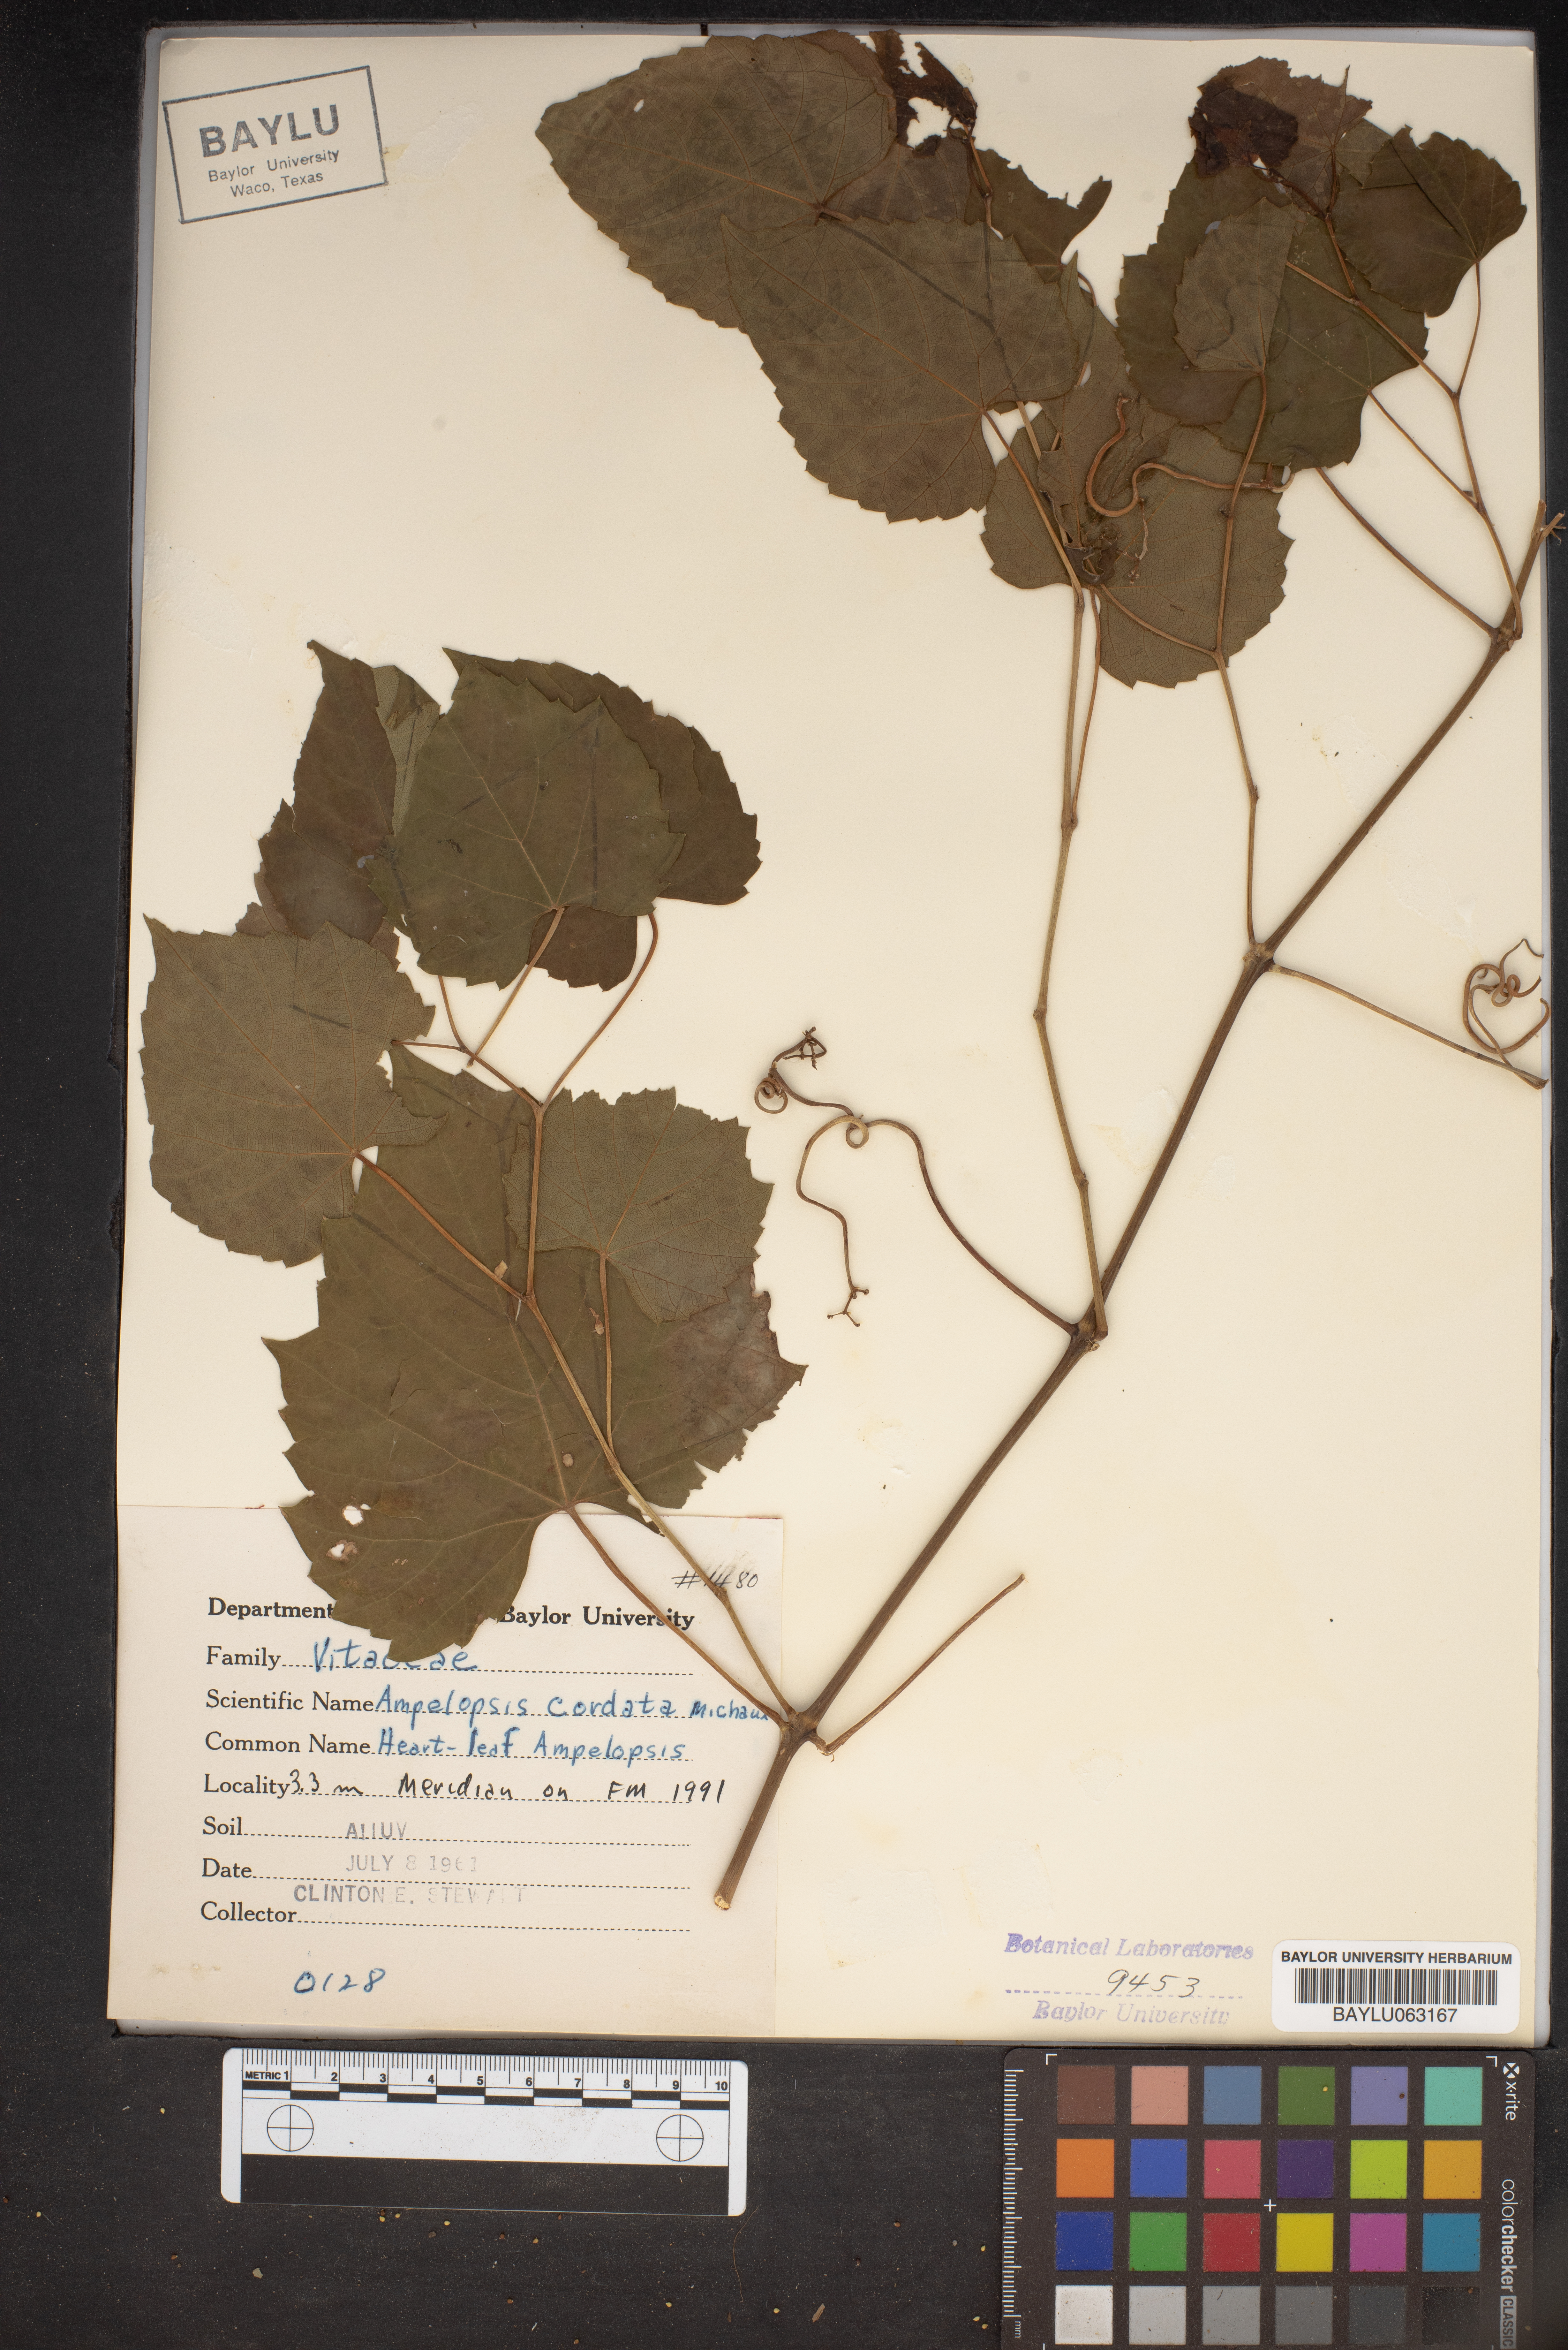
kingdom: Plantae
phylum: Tracheophyta
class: Magnoliopsida
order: Vitales
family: Vitaceae
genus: Ampelopsis
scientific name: Ampelopsis cordata
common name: Heart-leaf ampelopsis
